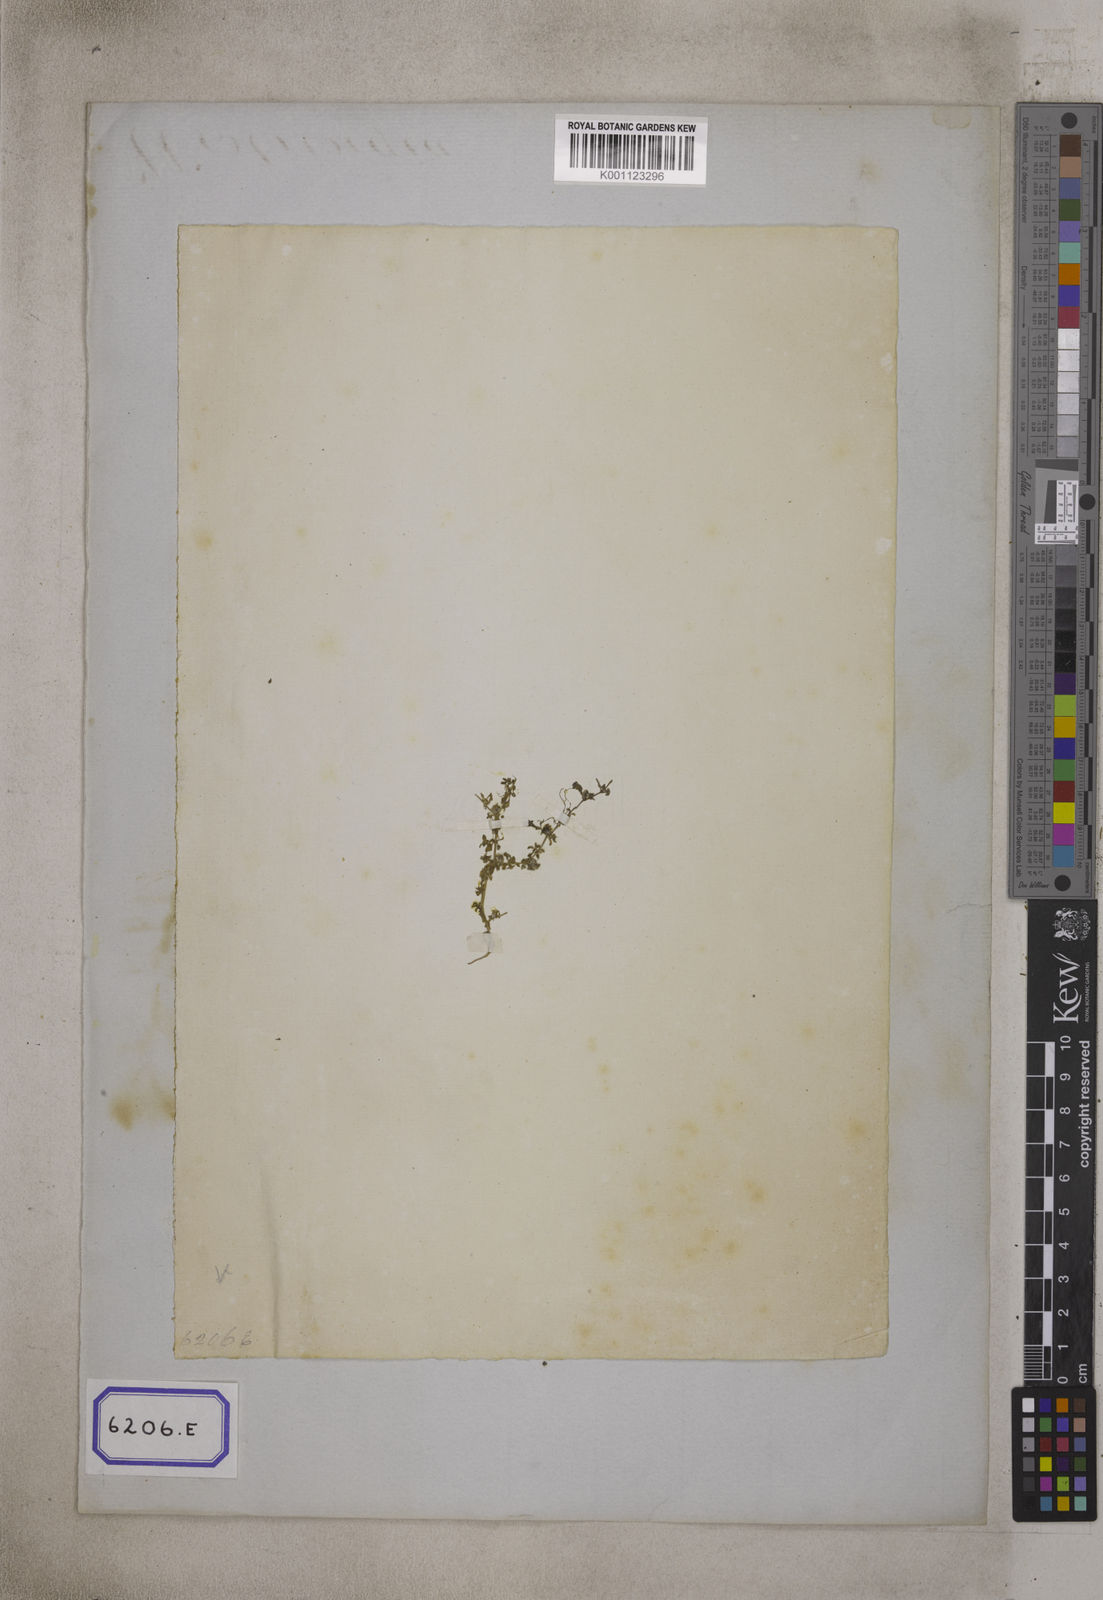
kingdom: Plantae
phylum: Tracheophyta
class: Magnoliopsida
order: Gentianales
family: Rubiaceae
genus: Dentella
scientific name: Dentella repens
